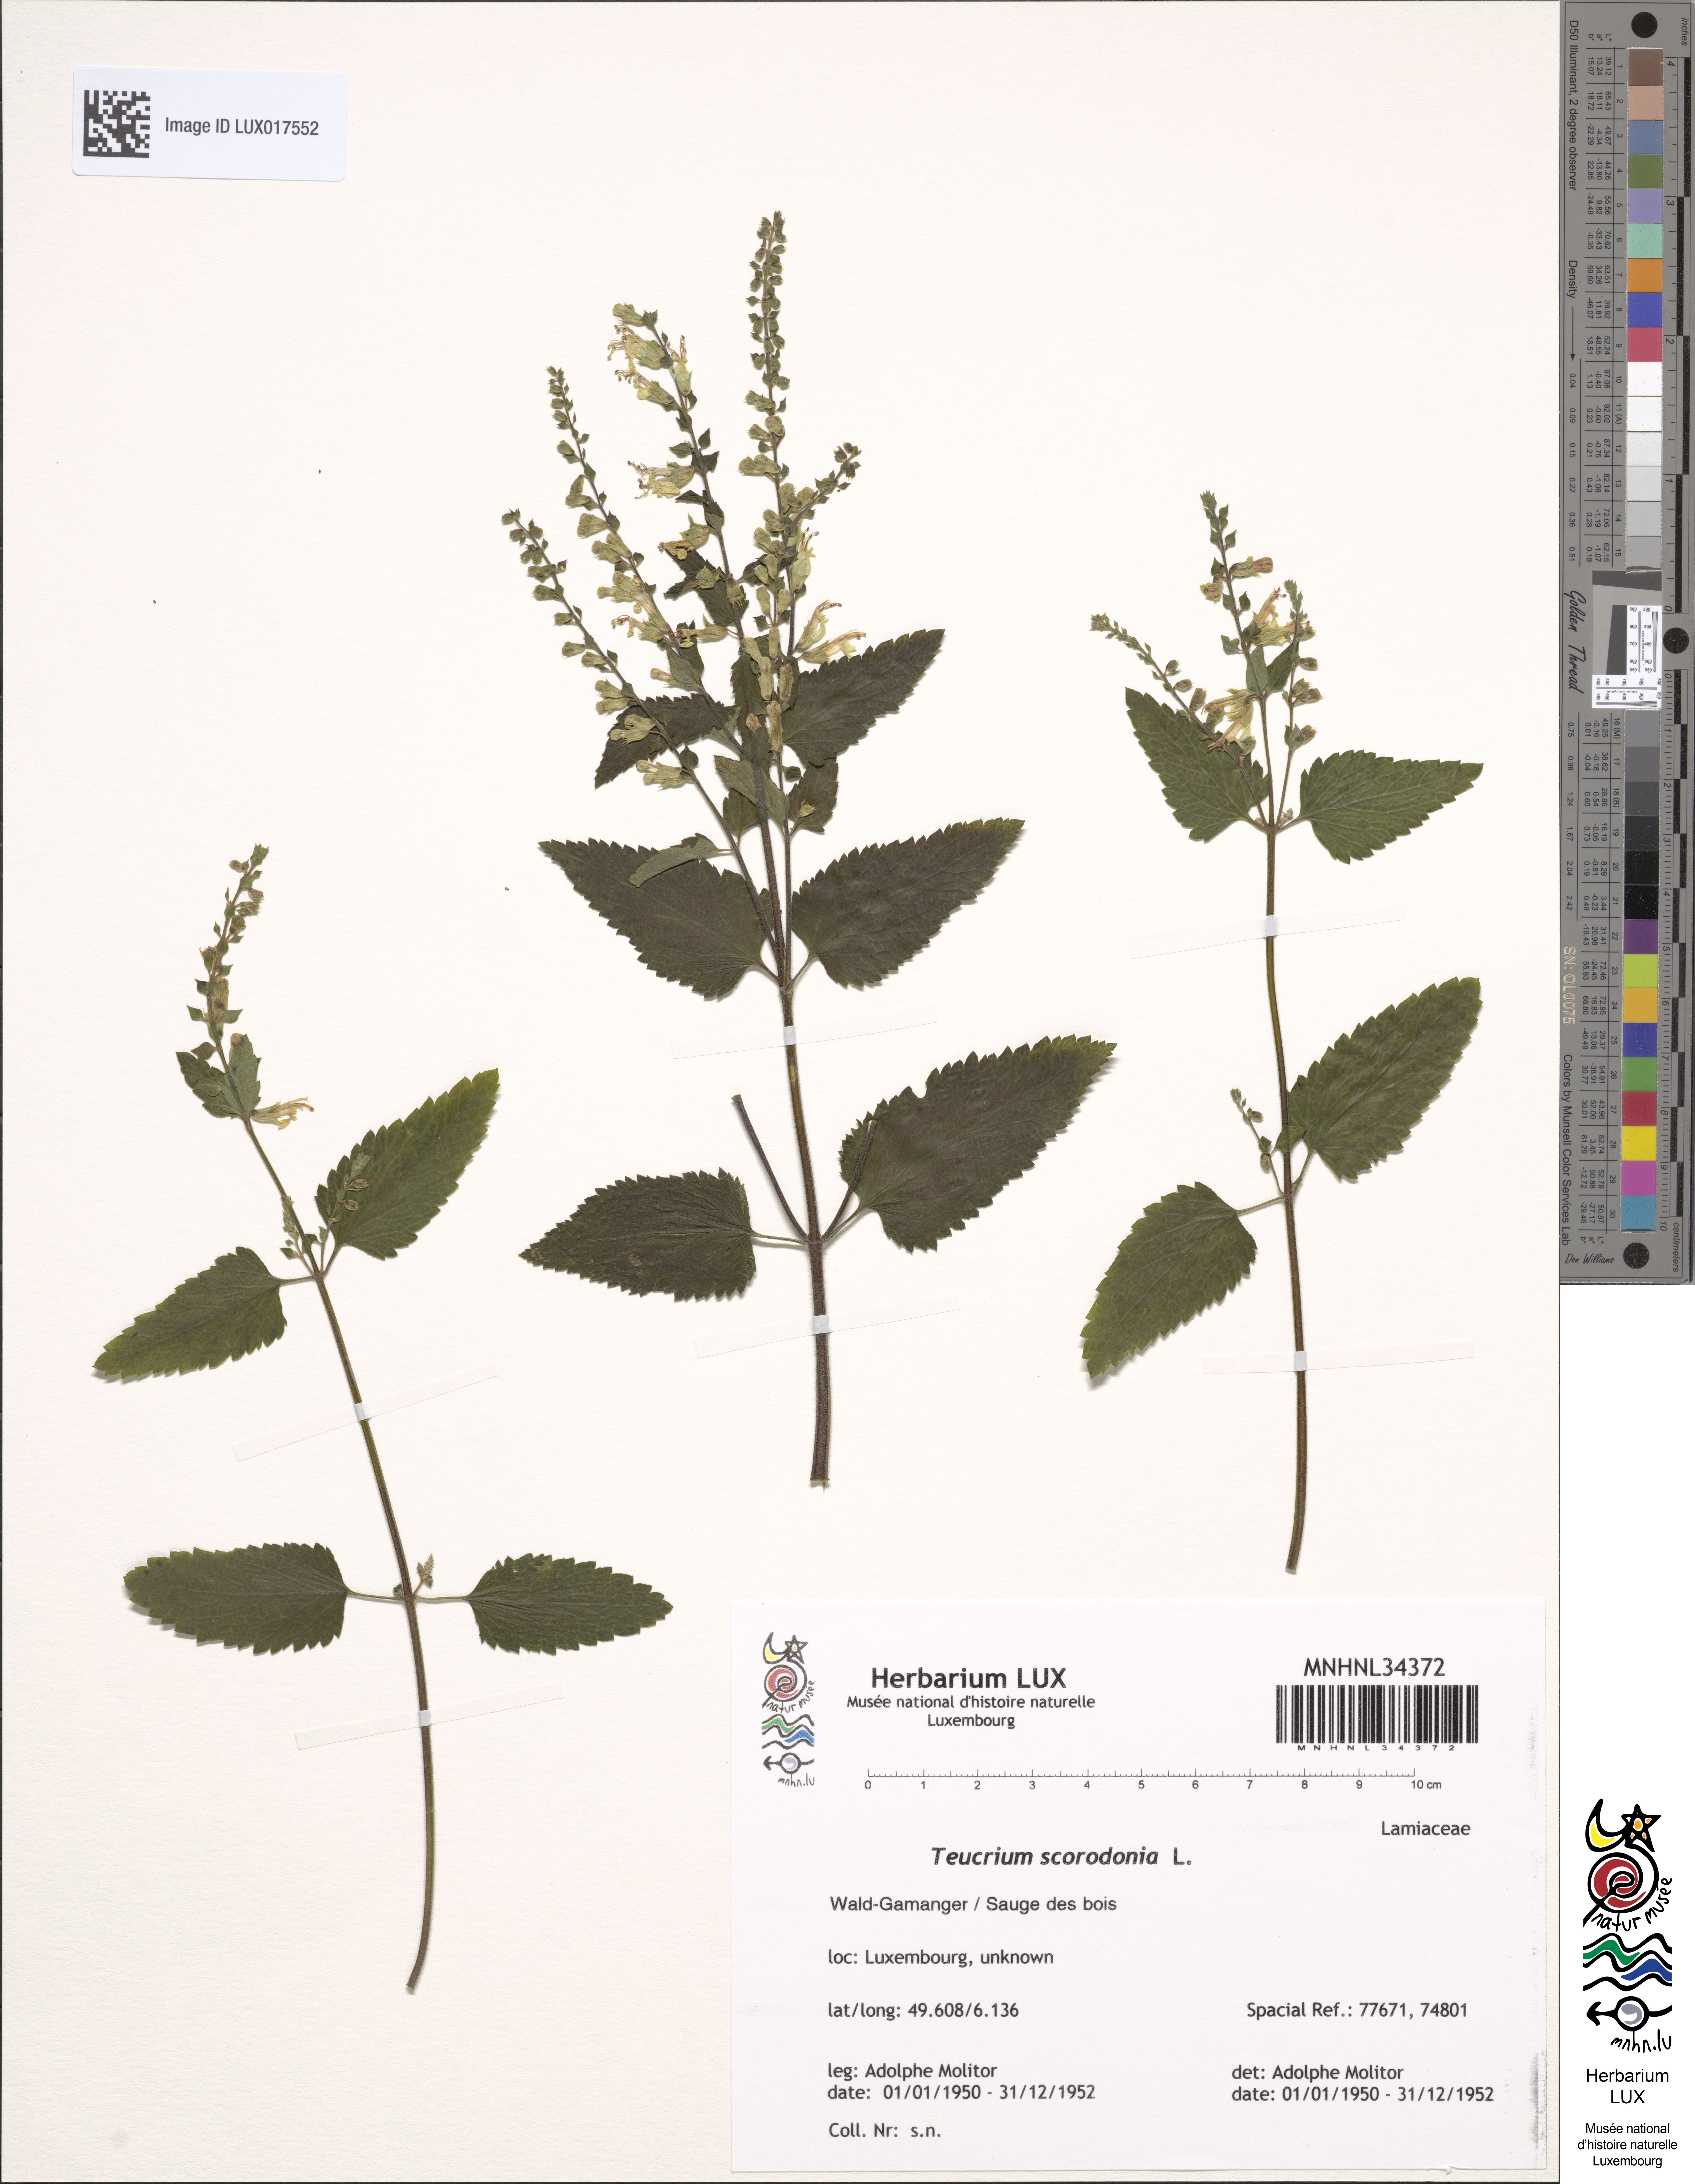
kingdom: Plantae
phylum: Tracheophyta
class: Magnoliopsida
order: Lamiales
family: Lamiaceae
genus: Teucrium
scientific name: Teucrium scorodonia
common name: Woodland germander
